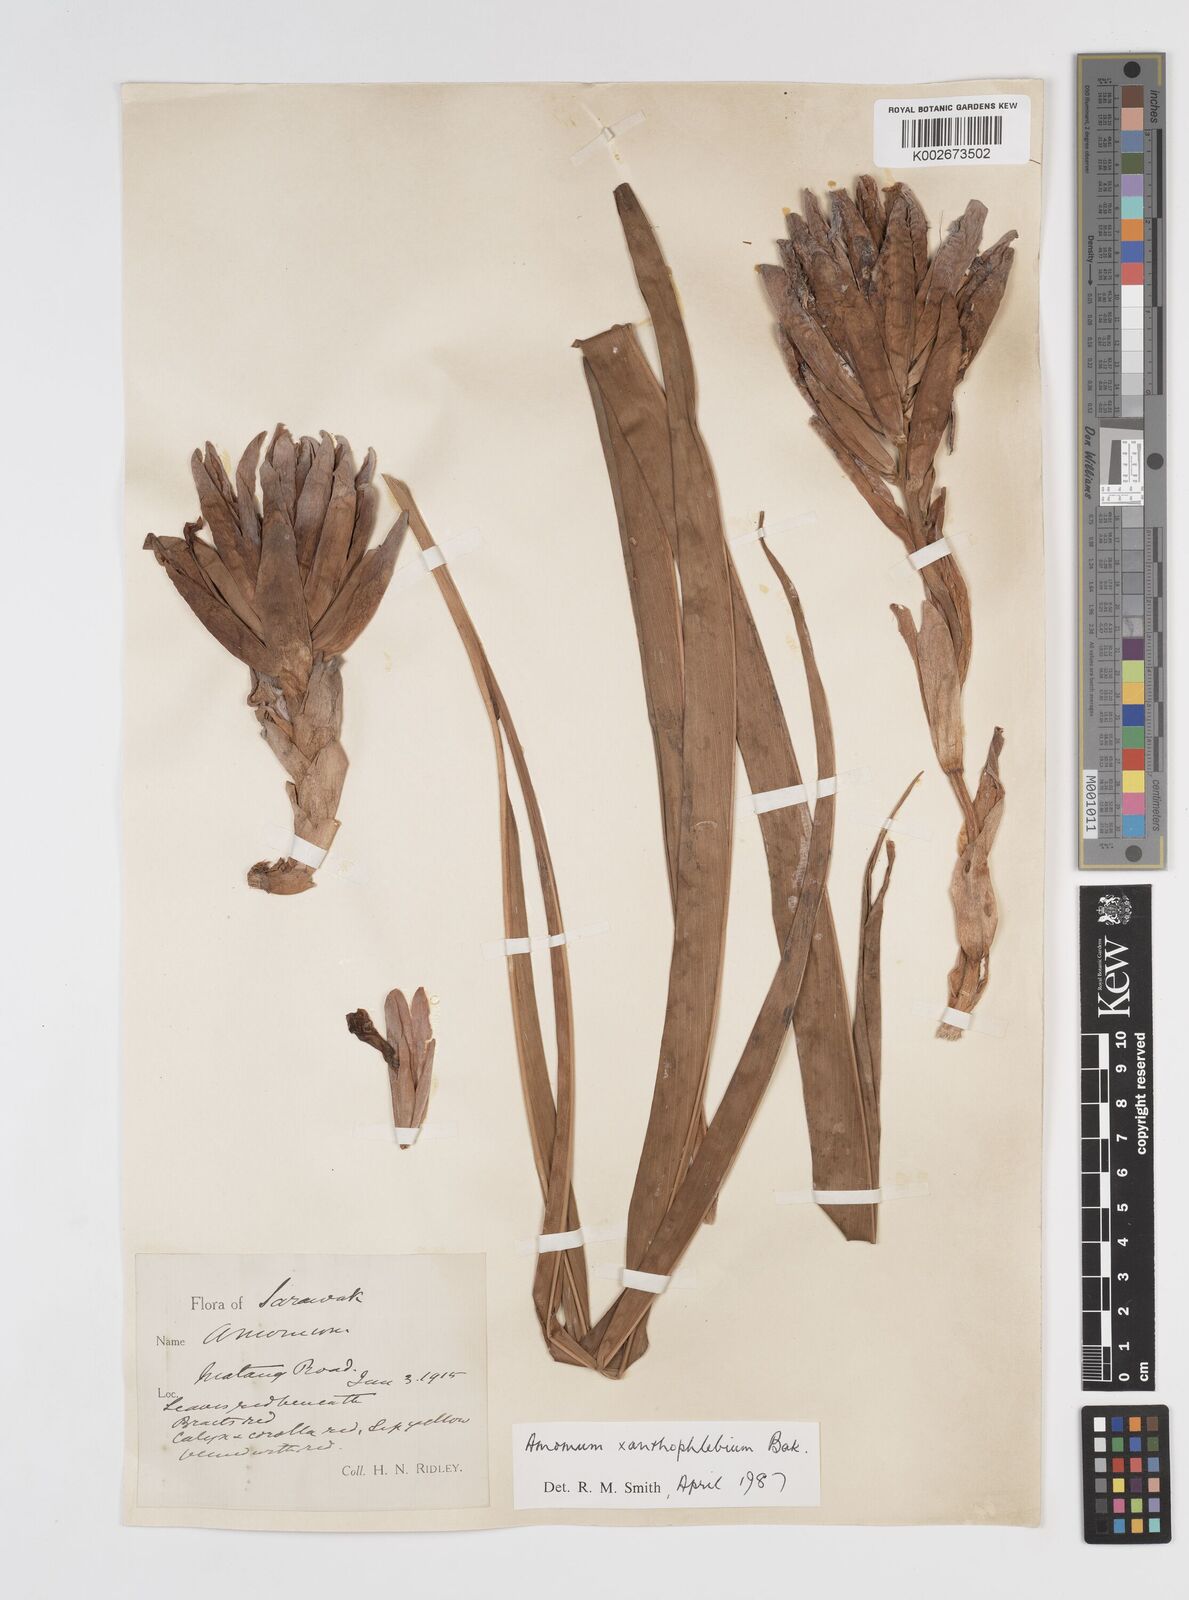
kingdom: Plantae
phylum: Tracheophyta
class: Liliopsida
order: Zingiberales
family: Zingiberaceae
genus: Conamomum
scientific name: Conamomum xanthophlebium
